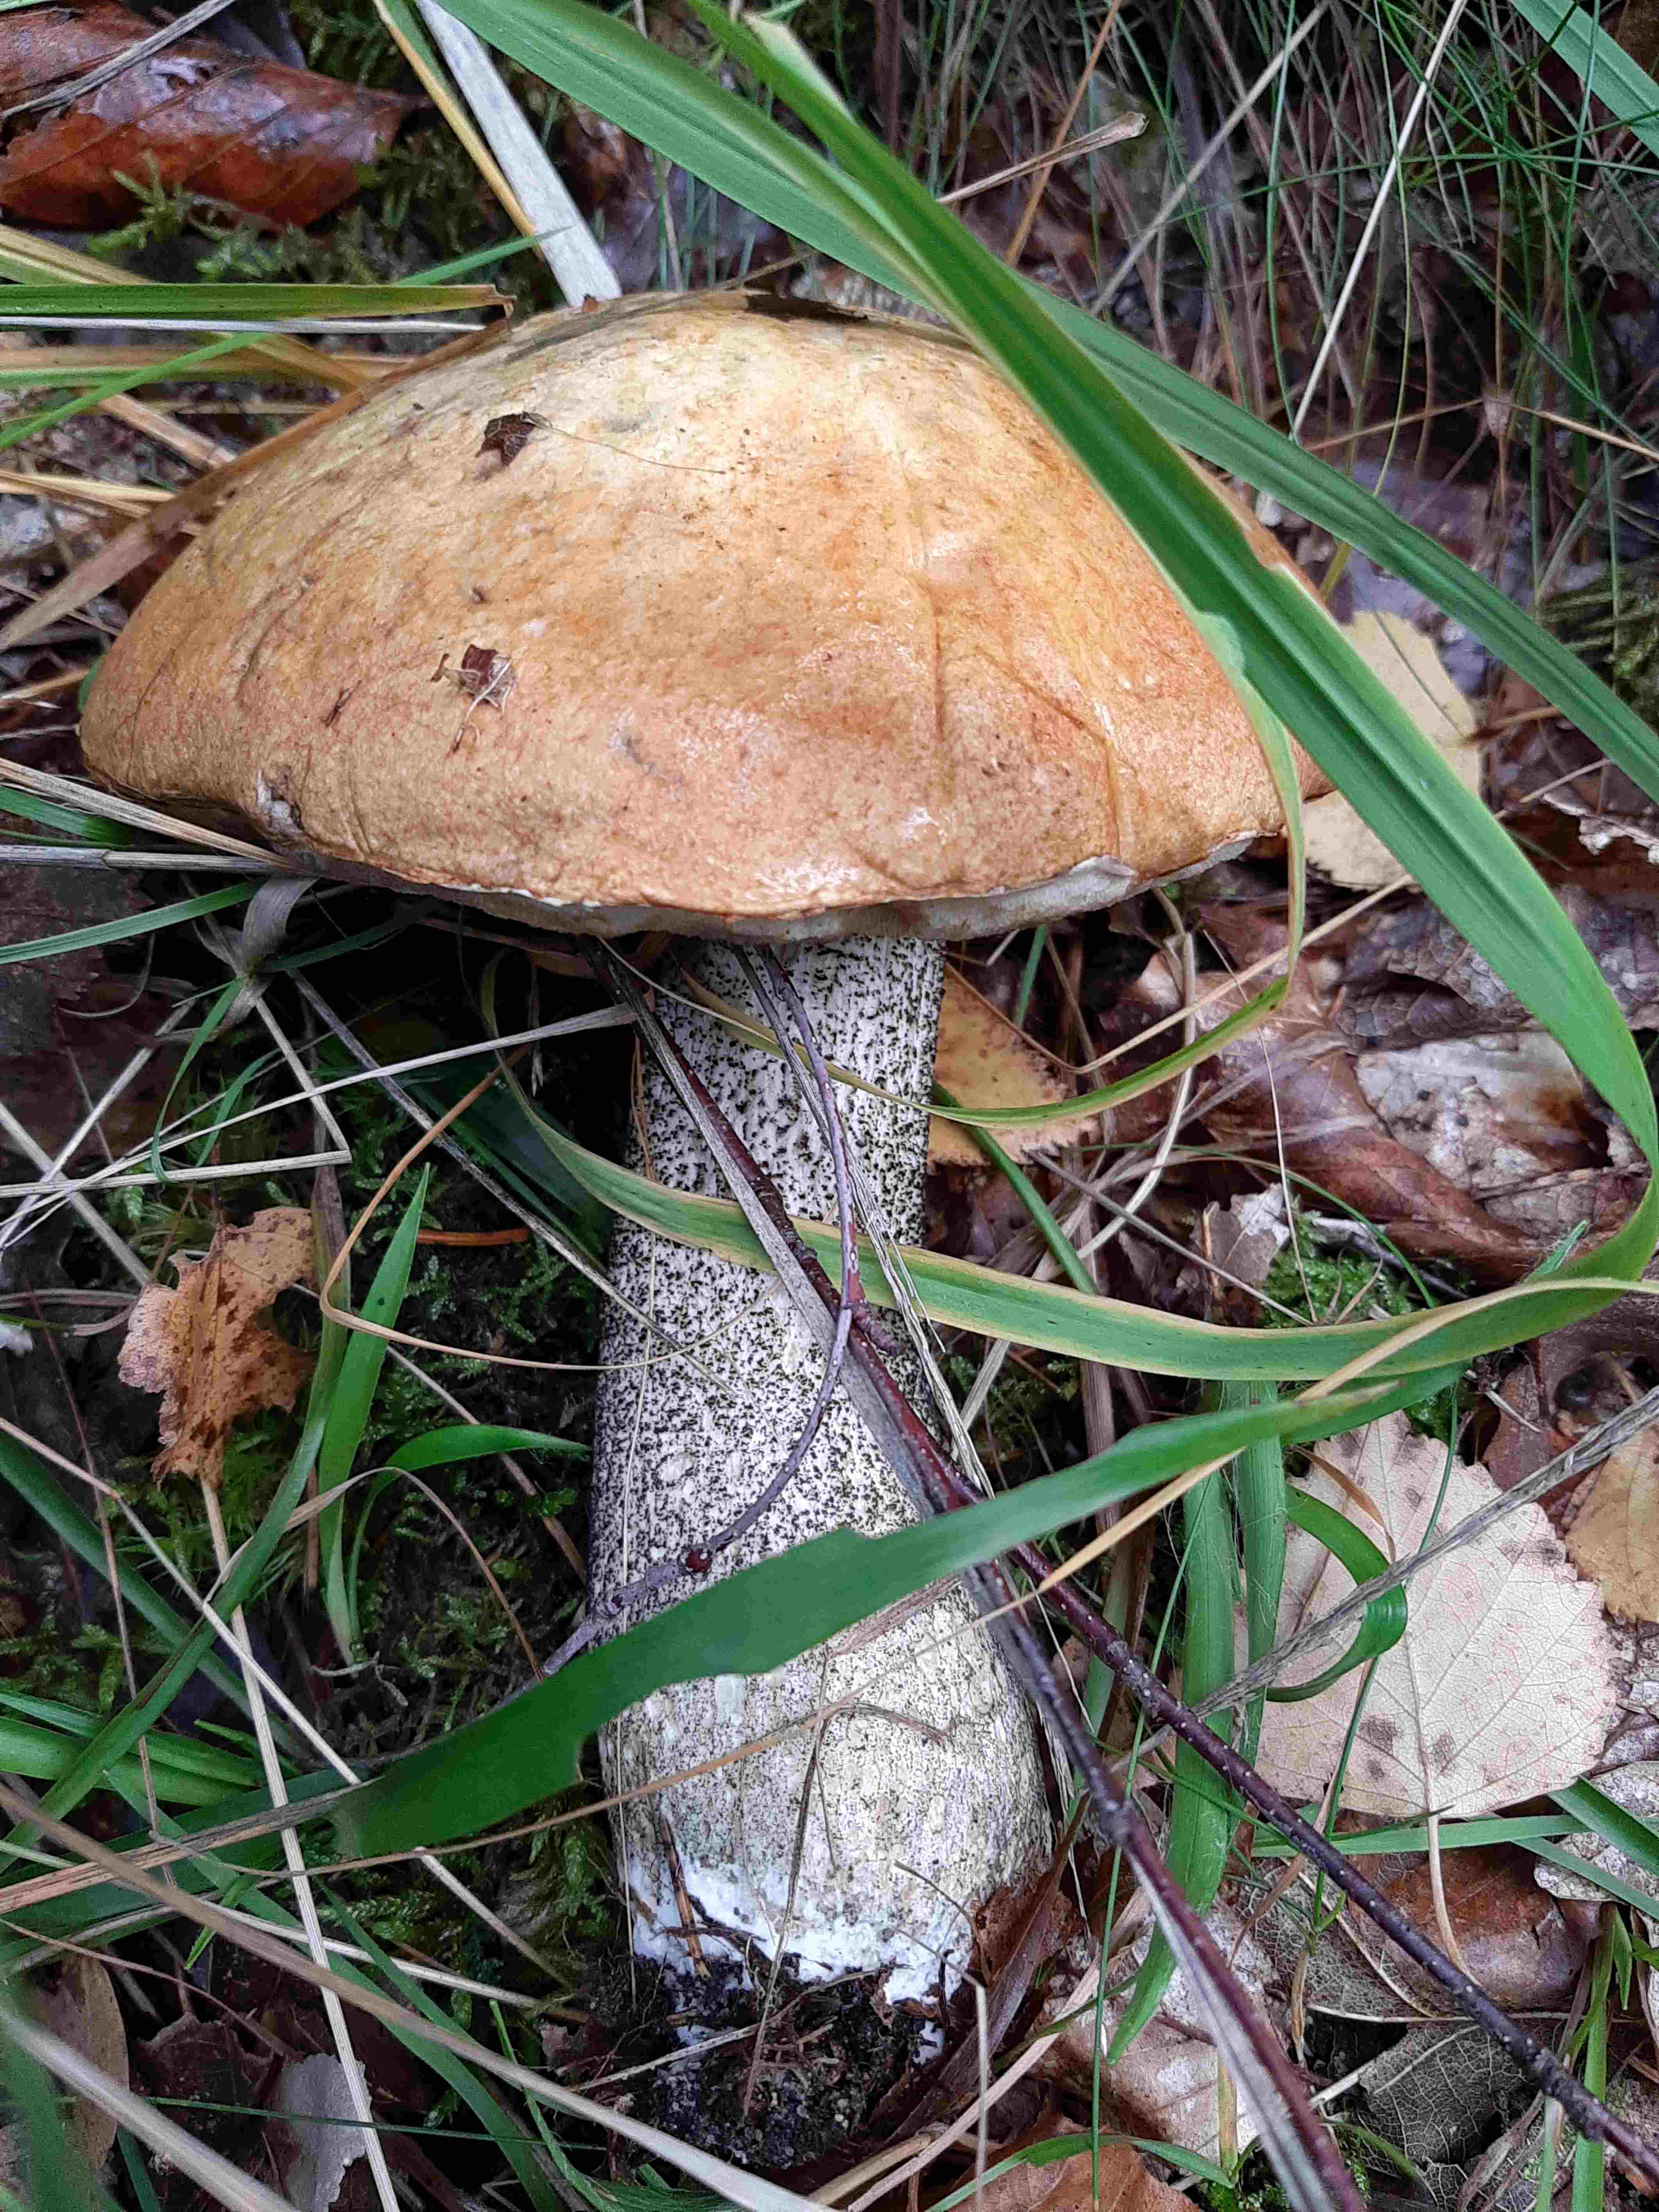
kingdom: Fungi
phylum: Basidiomycota
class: Agaricomycetes
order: Boletales
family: Boletaceae
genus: Leccinum
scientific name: Leccinum versipelle
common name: orange skælrørhat
